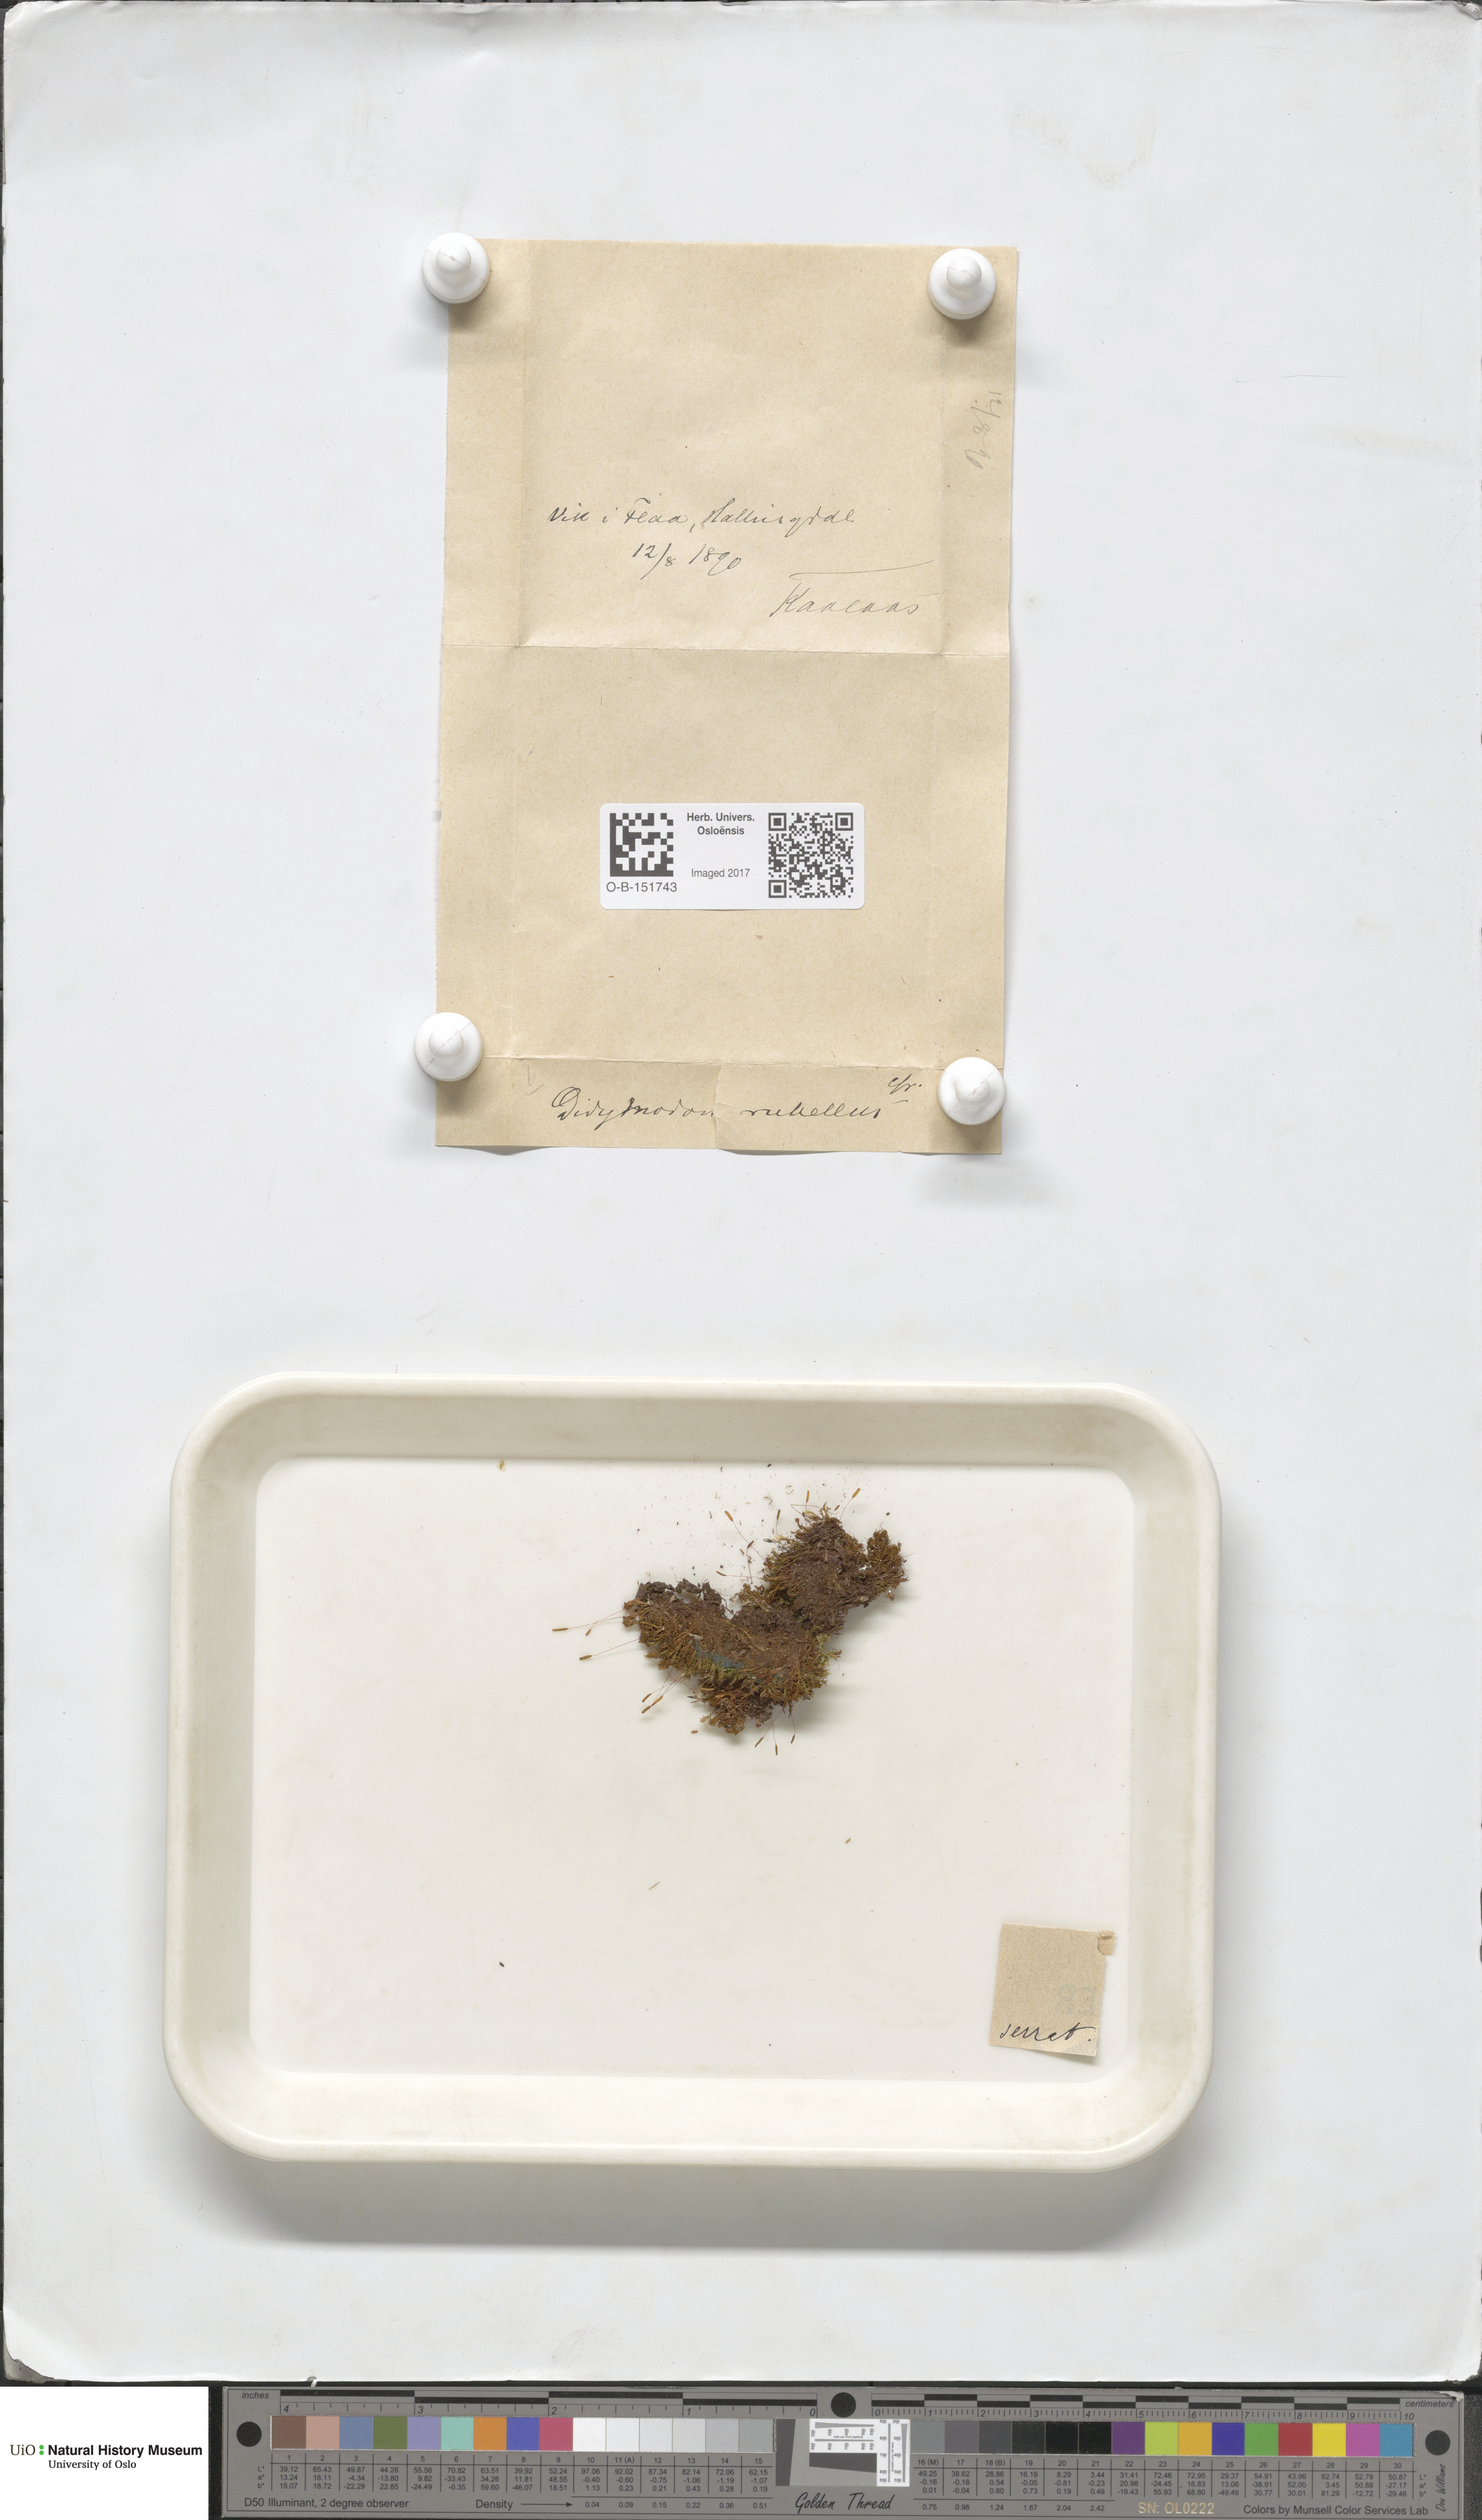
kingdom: Plantae
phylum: Bryophyta
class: Bryopsida
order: Pottiales
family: Pottiaceae
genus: Bryoerythrophyllum
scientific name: Bryoerythrophyllum recurvirostrum
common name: Red beard moss
